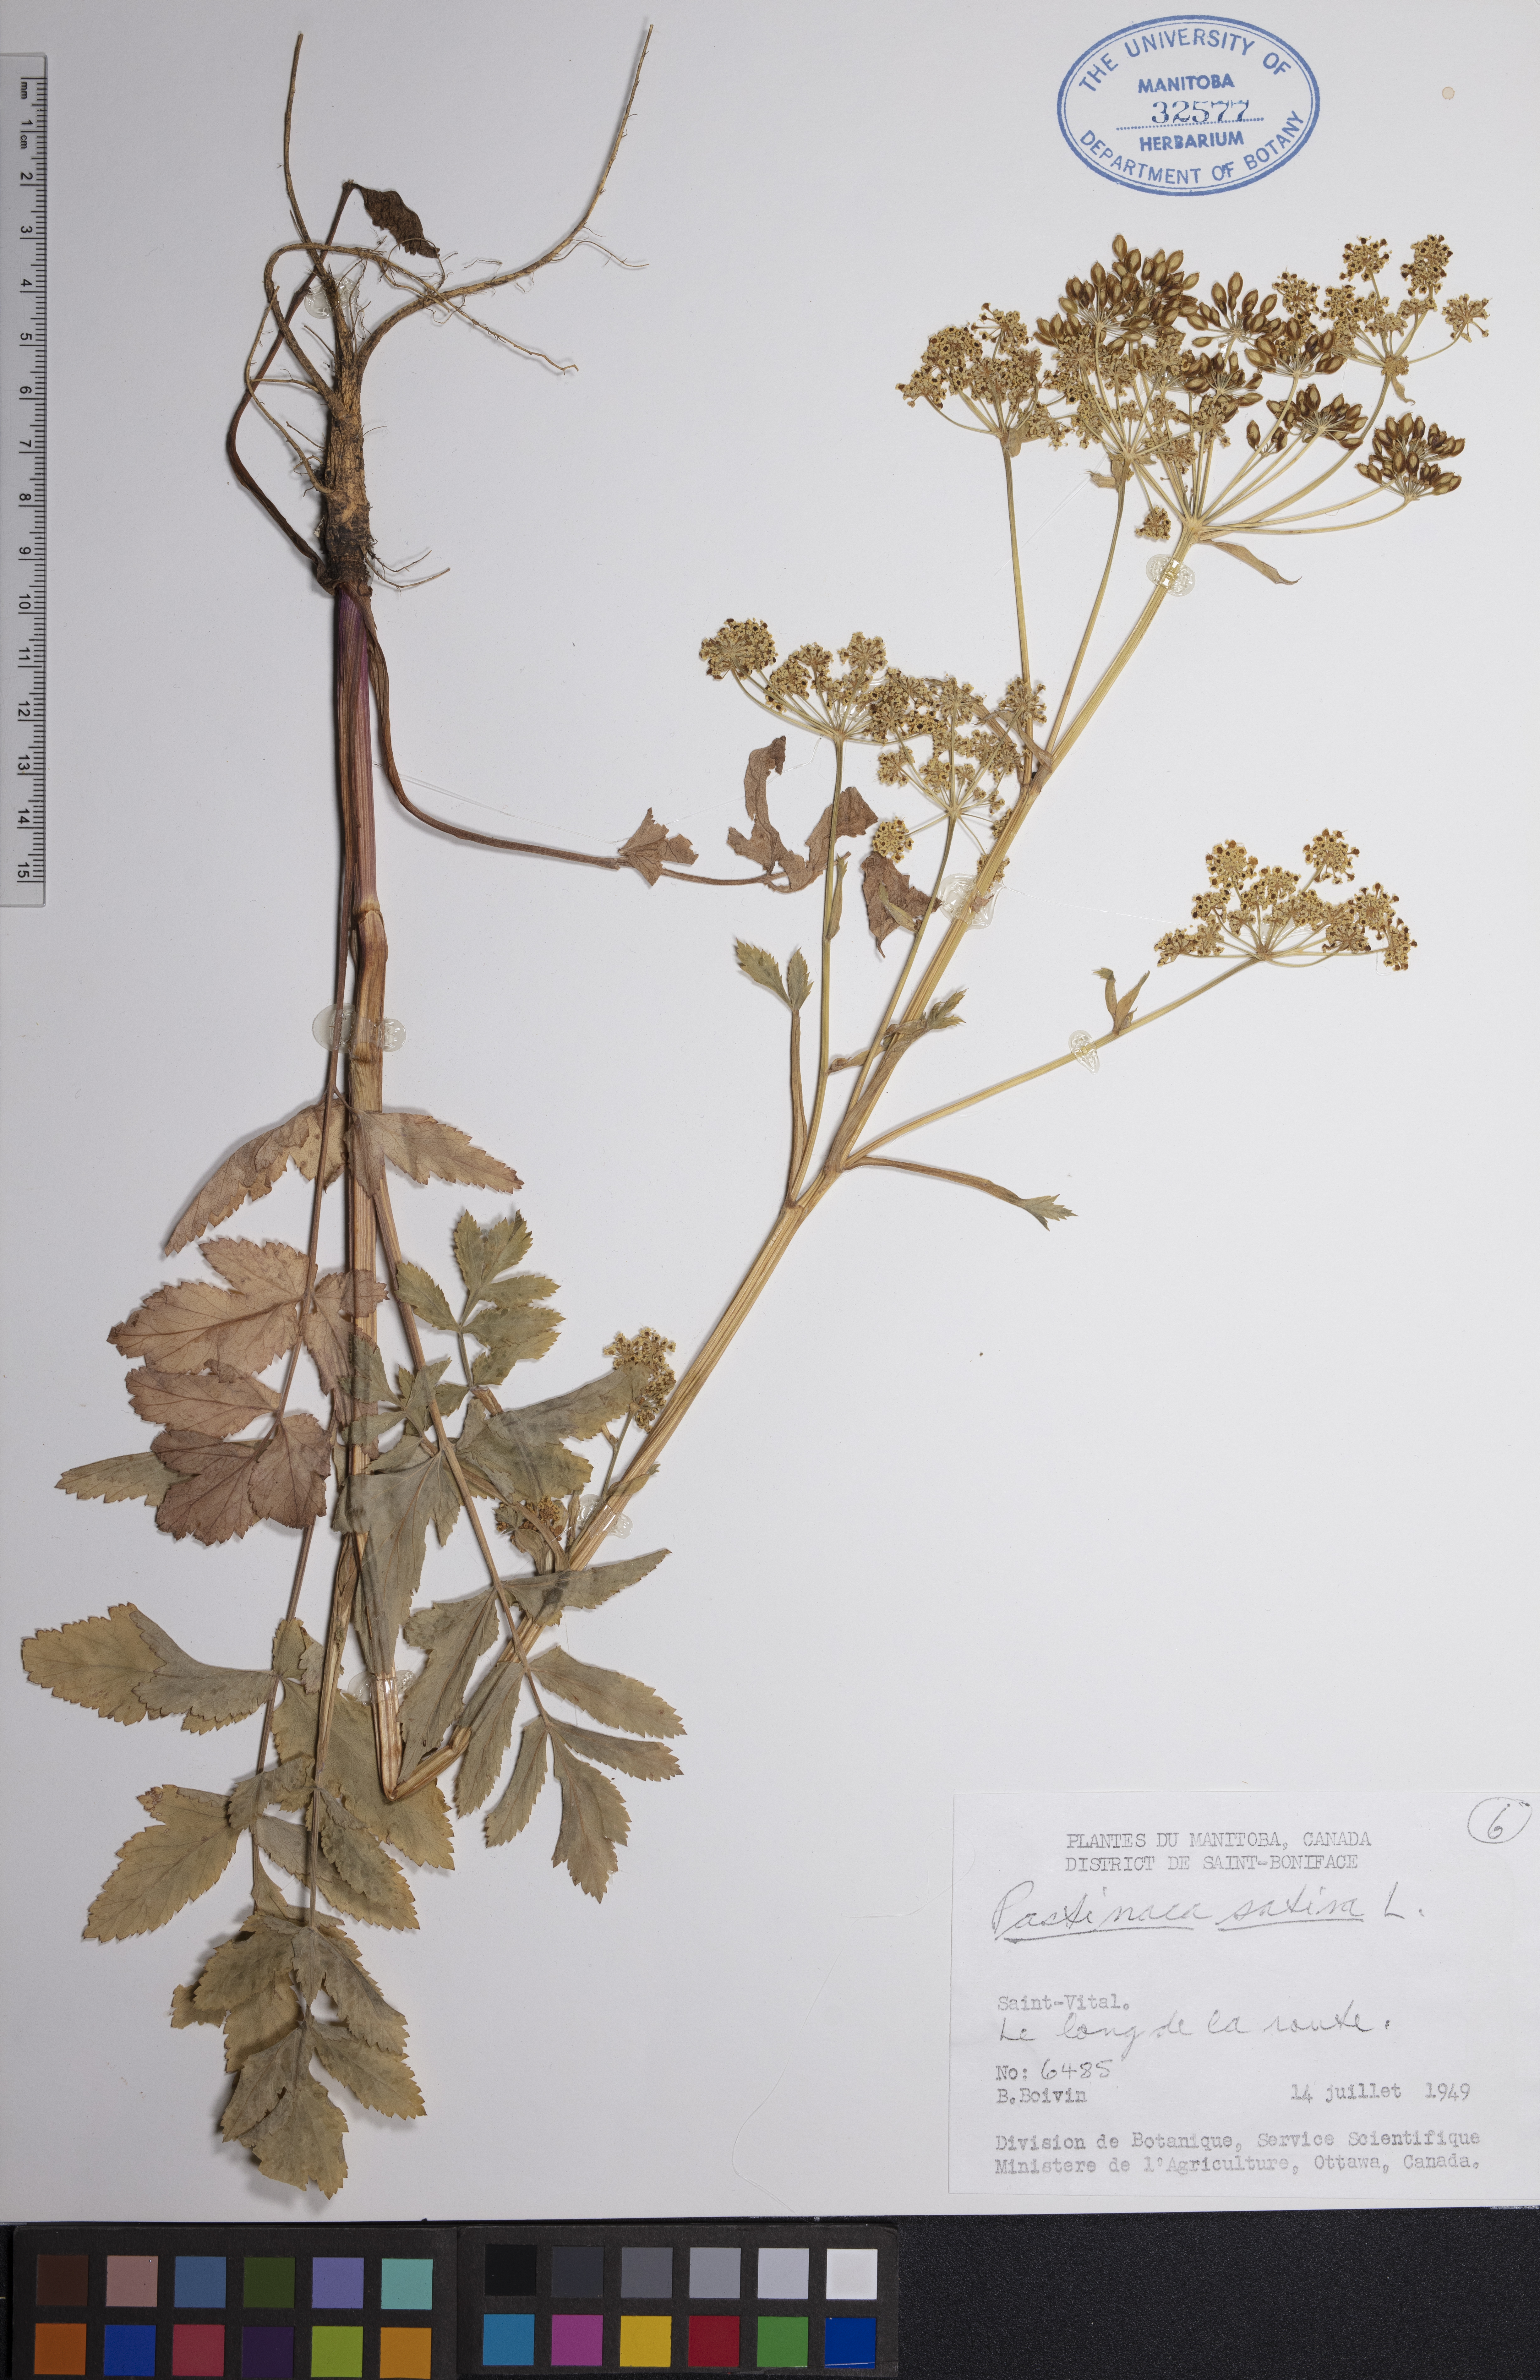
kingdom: Plantae
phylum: Tracheophyta
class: Magnoliopsida
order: Apiales
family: Apiaceae
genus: Pastinaca
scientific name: Pastinaca sativa
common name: Wild parsnip
